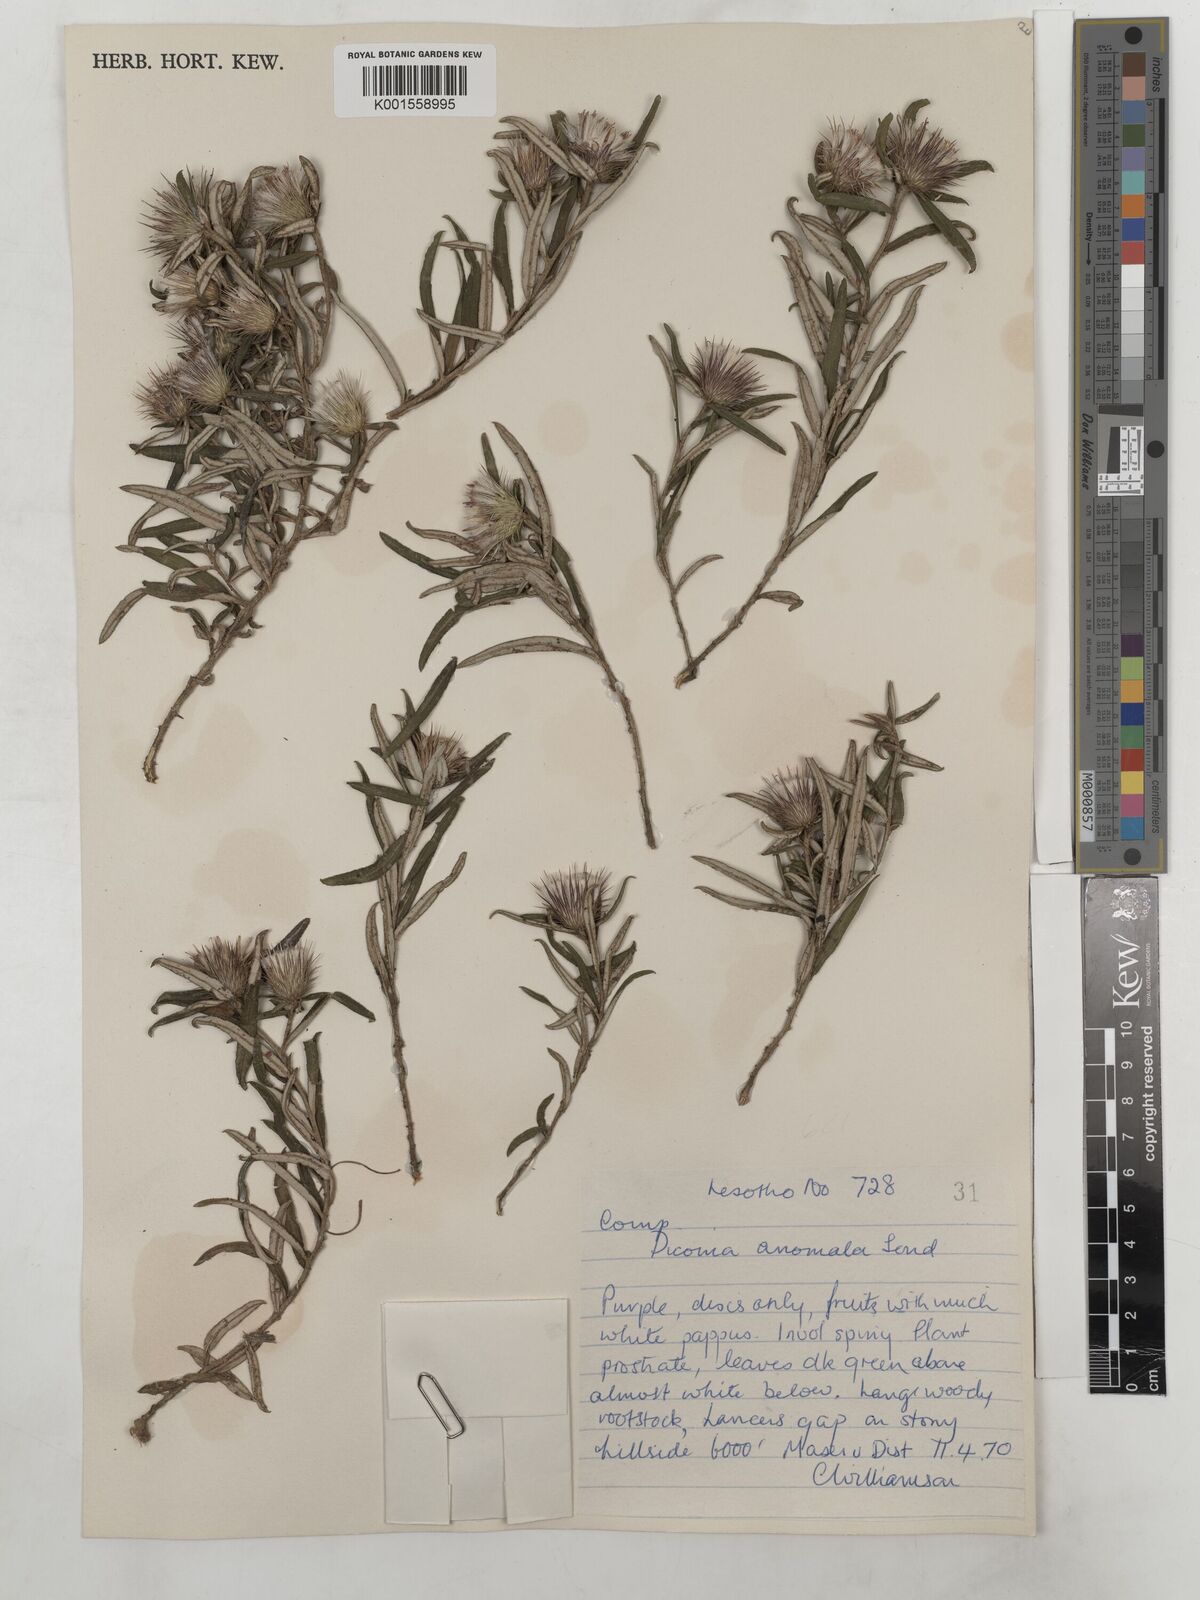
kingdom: Plantae
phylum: Tracheophyta
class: Magnoliopsida
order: Asterales
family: Asteraceae
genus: Dicoma
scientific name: Dicoma anomala
